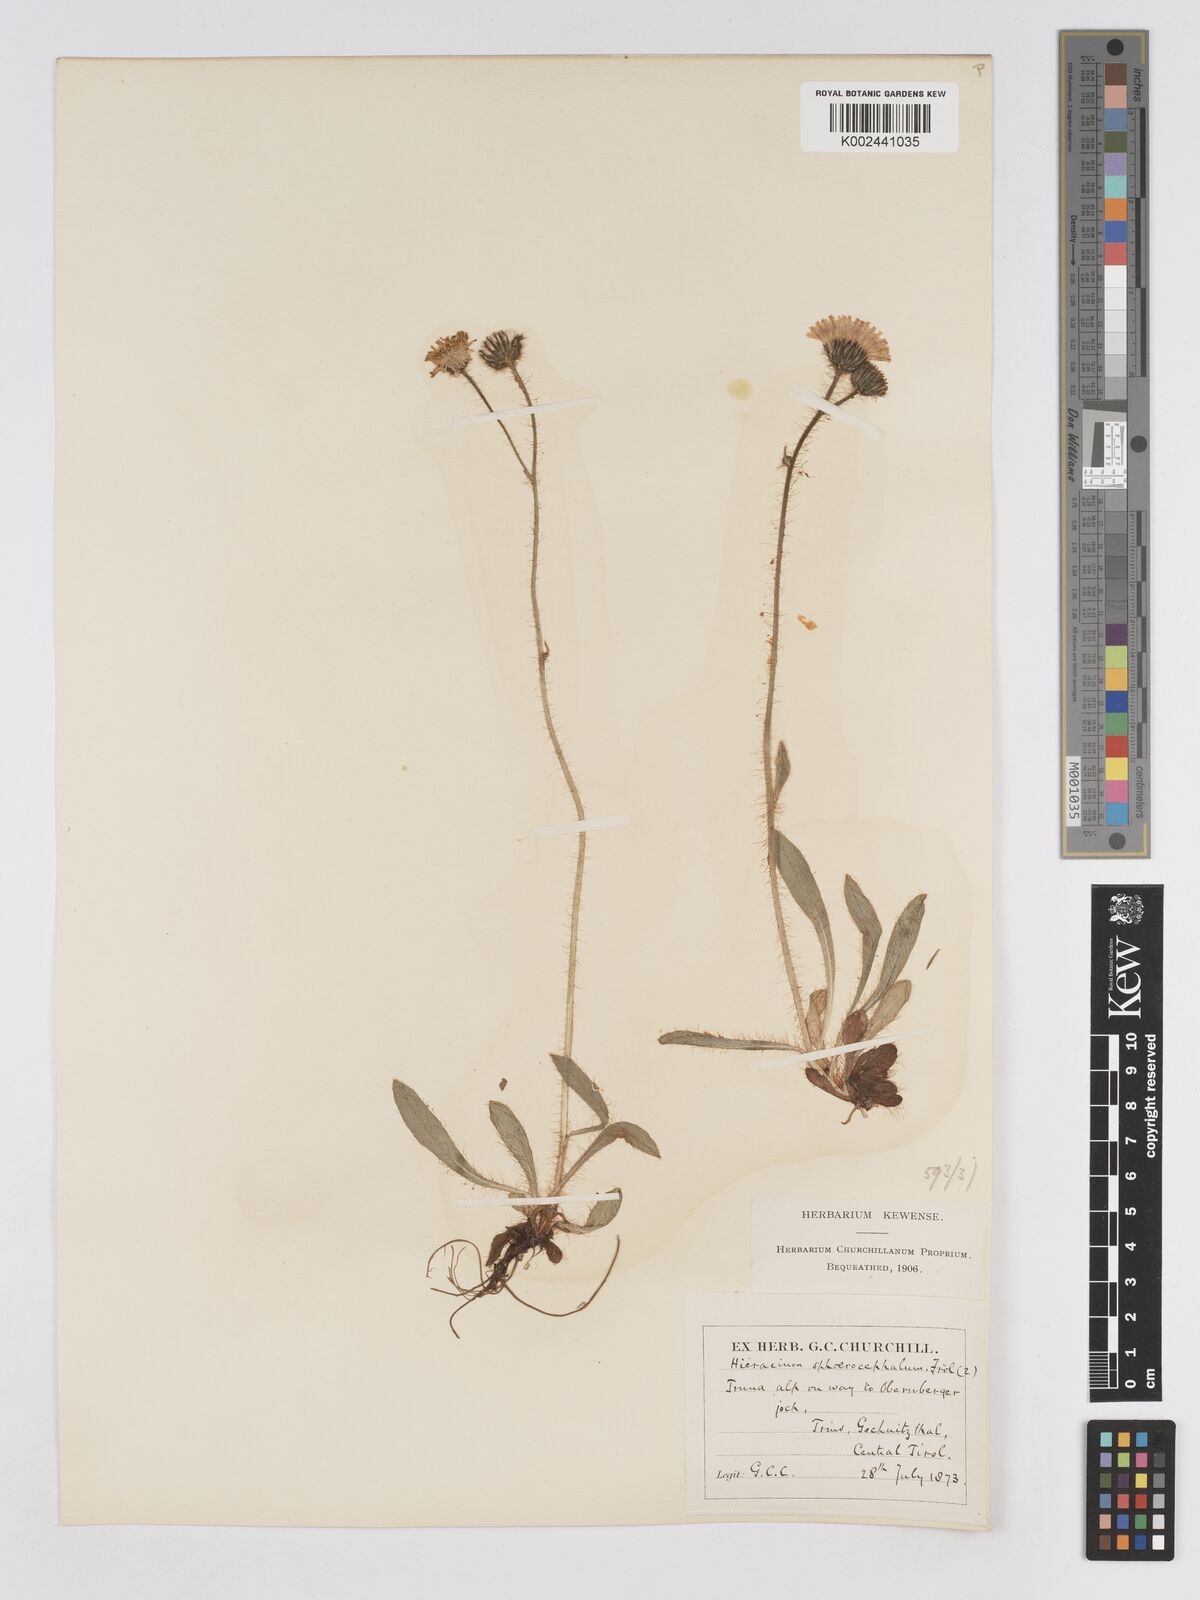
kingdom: Plantae
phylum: Tracheophyta
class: Magnoliopsida
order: Asterales
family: Asteraceae
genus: Pilosella
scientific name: Pilosella sphaerocephala
